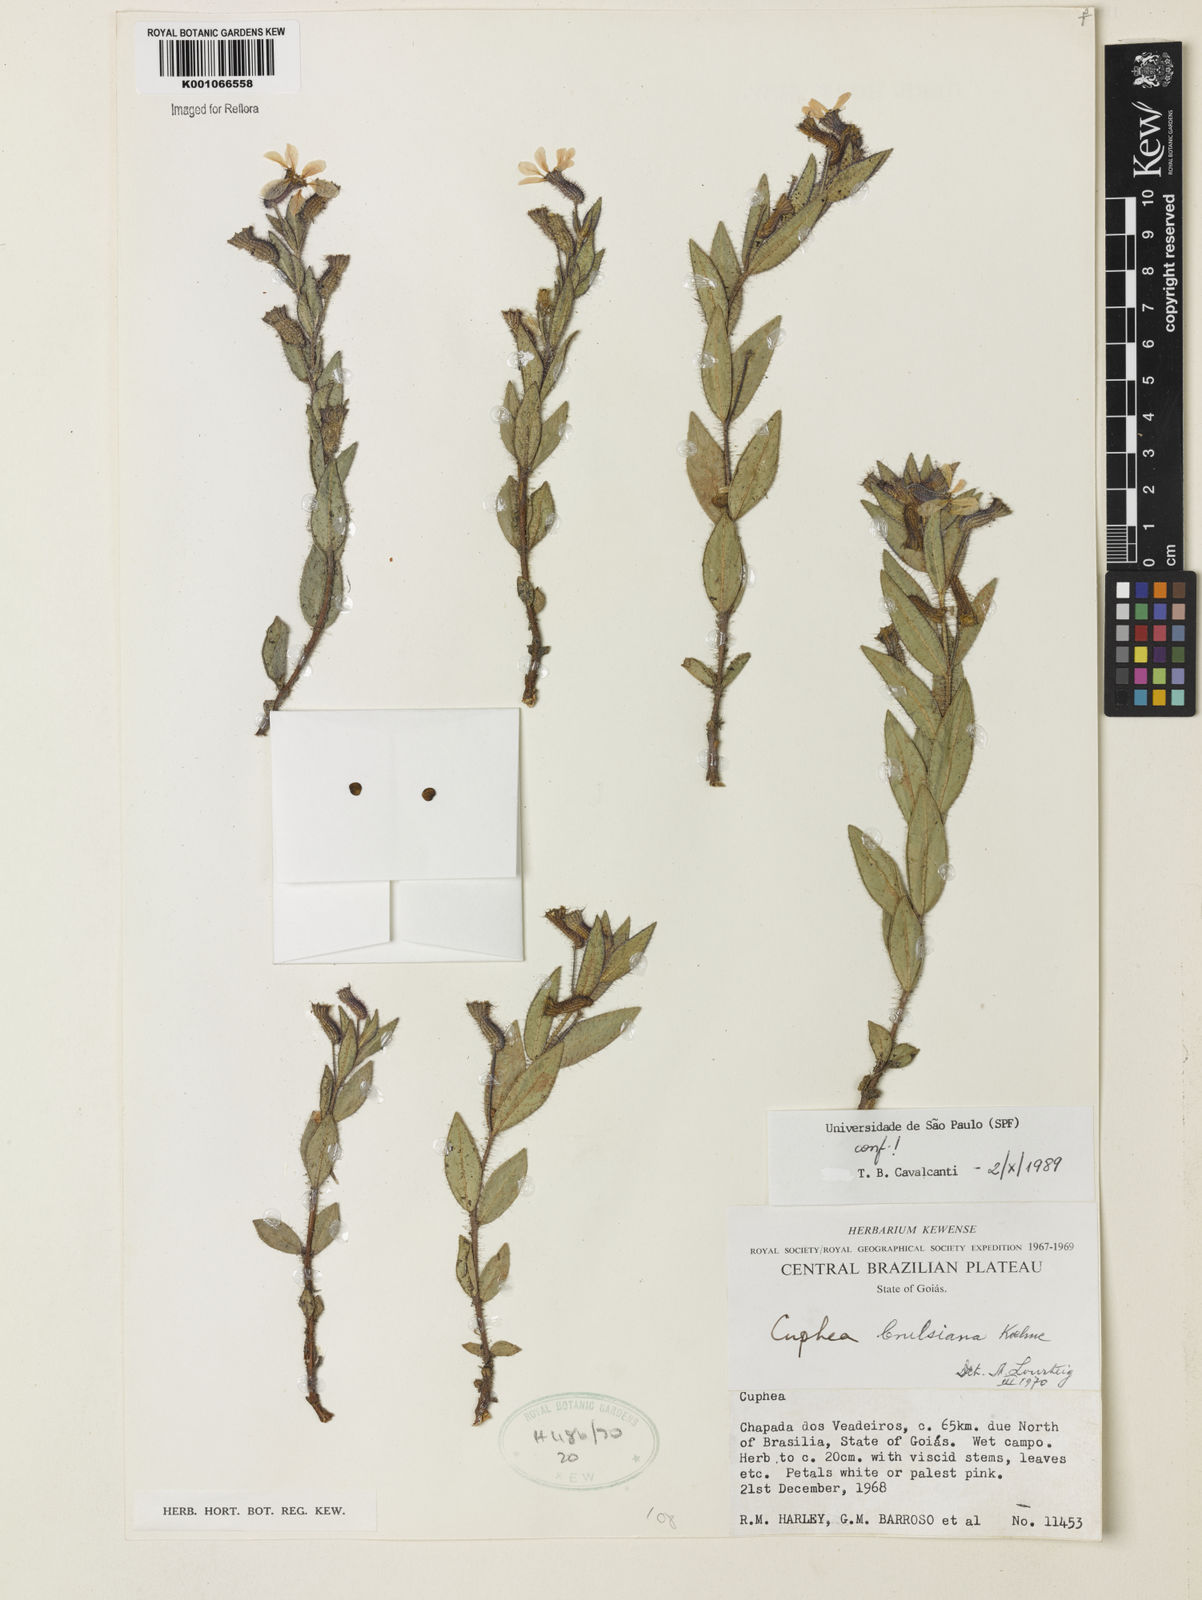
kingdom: Plantae
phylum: Tracheophyta
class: Magnoliopsida
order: Myrtales
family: Lythraceae
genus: Cuphea
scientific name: Cuphea crulsiana
